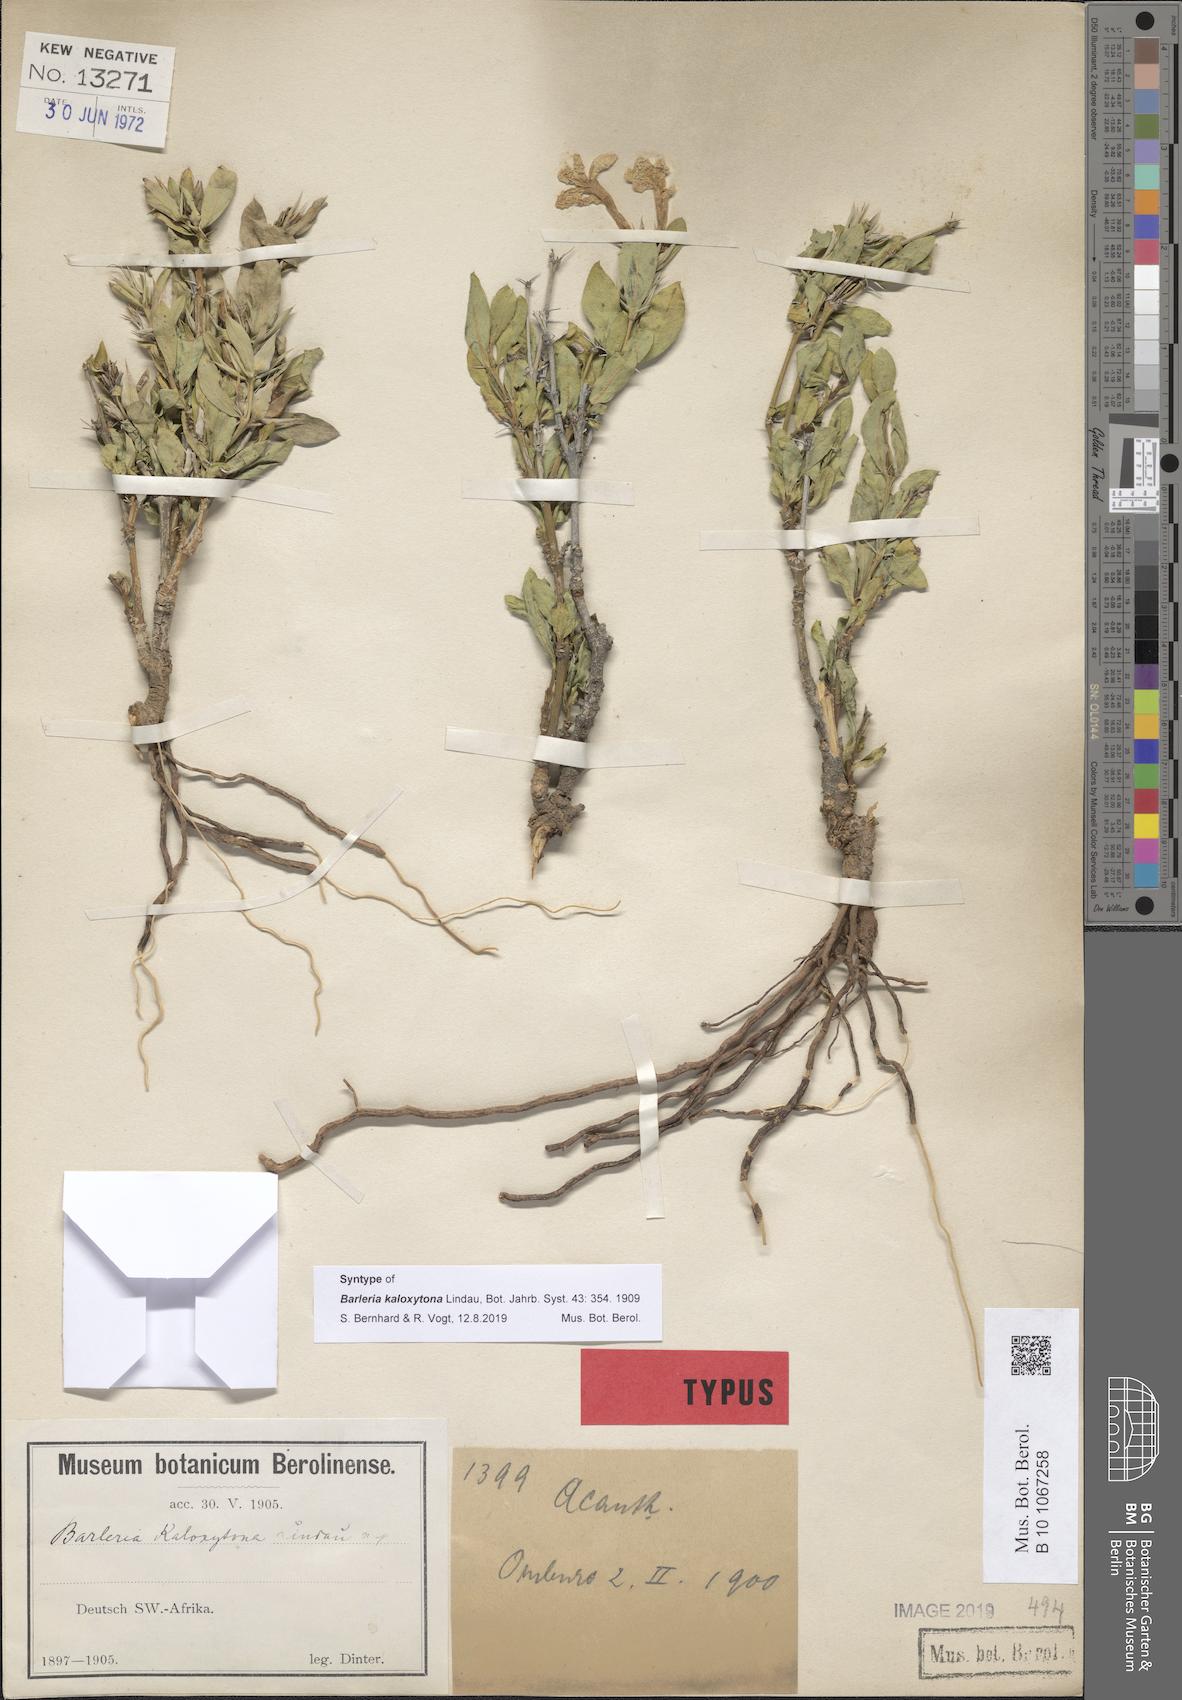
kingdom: Plantae
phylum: Tracheophyta
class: Magnoliopsida
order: Lamiales
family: Acanthaceae
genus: Barleria
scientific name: Barleria kaloxytona
